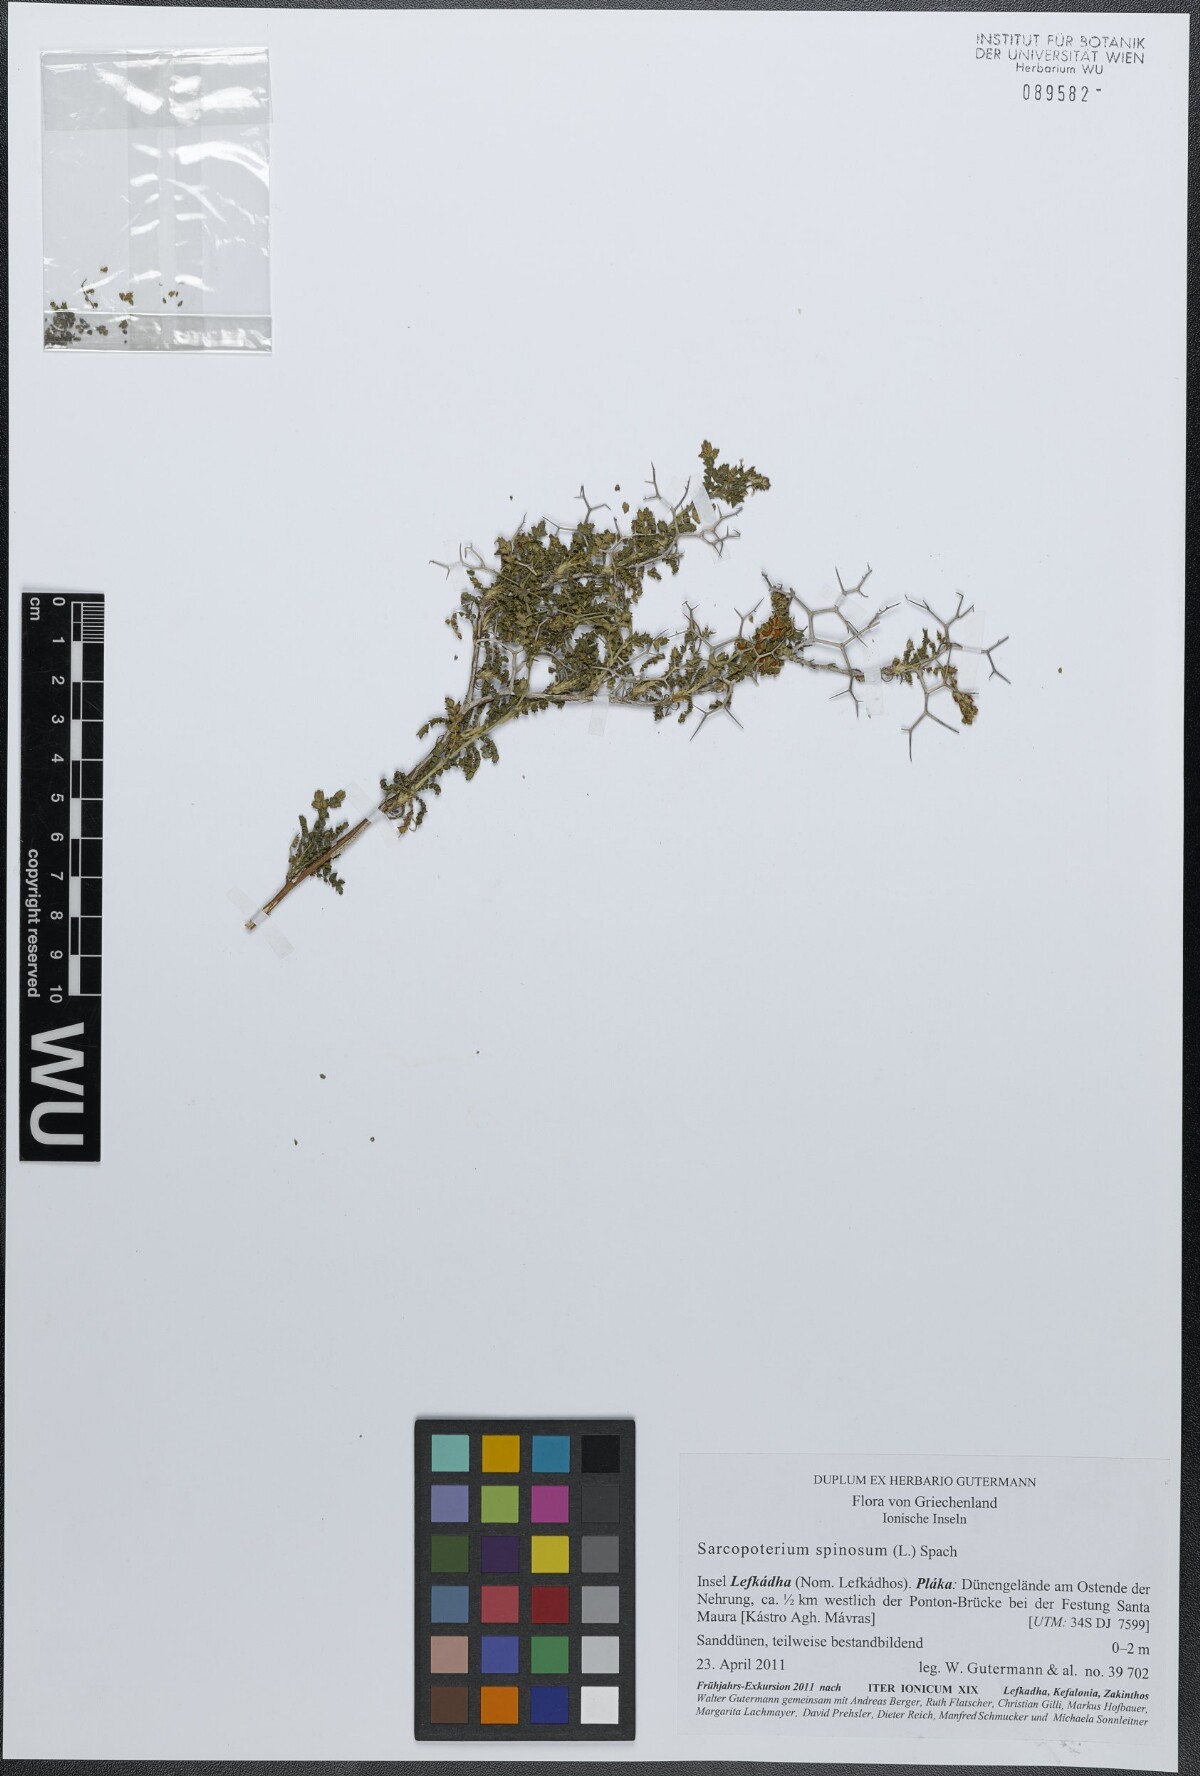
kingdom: Plantae
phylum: Tracheophyta
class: Magnoliopsida
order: Rosales
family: Rosaceae
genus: Sarcopoterium
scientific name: Sarcopoterium spinosum
